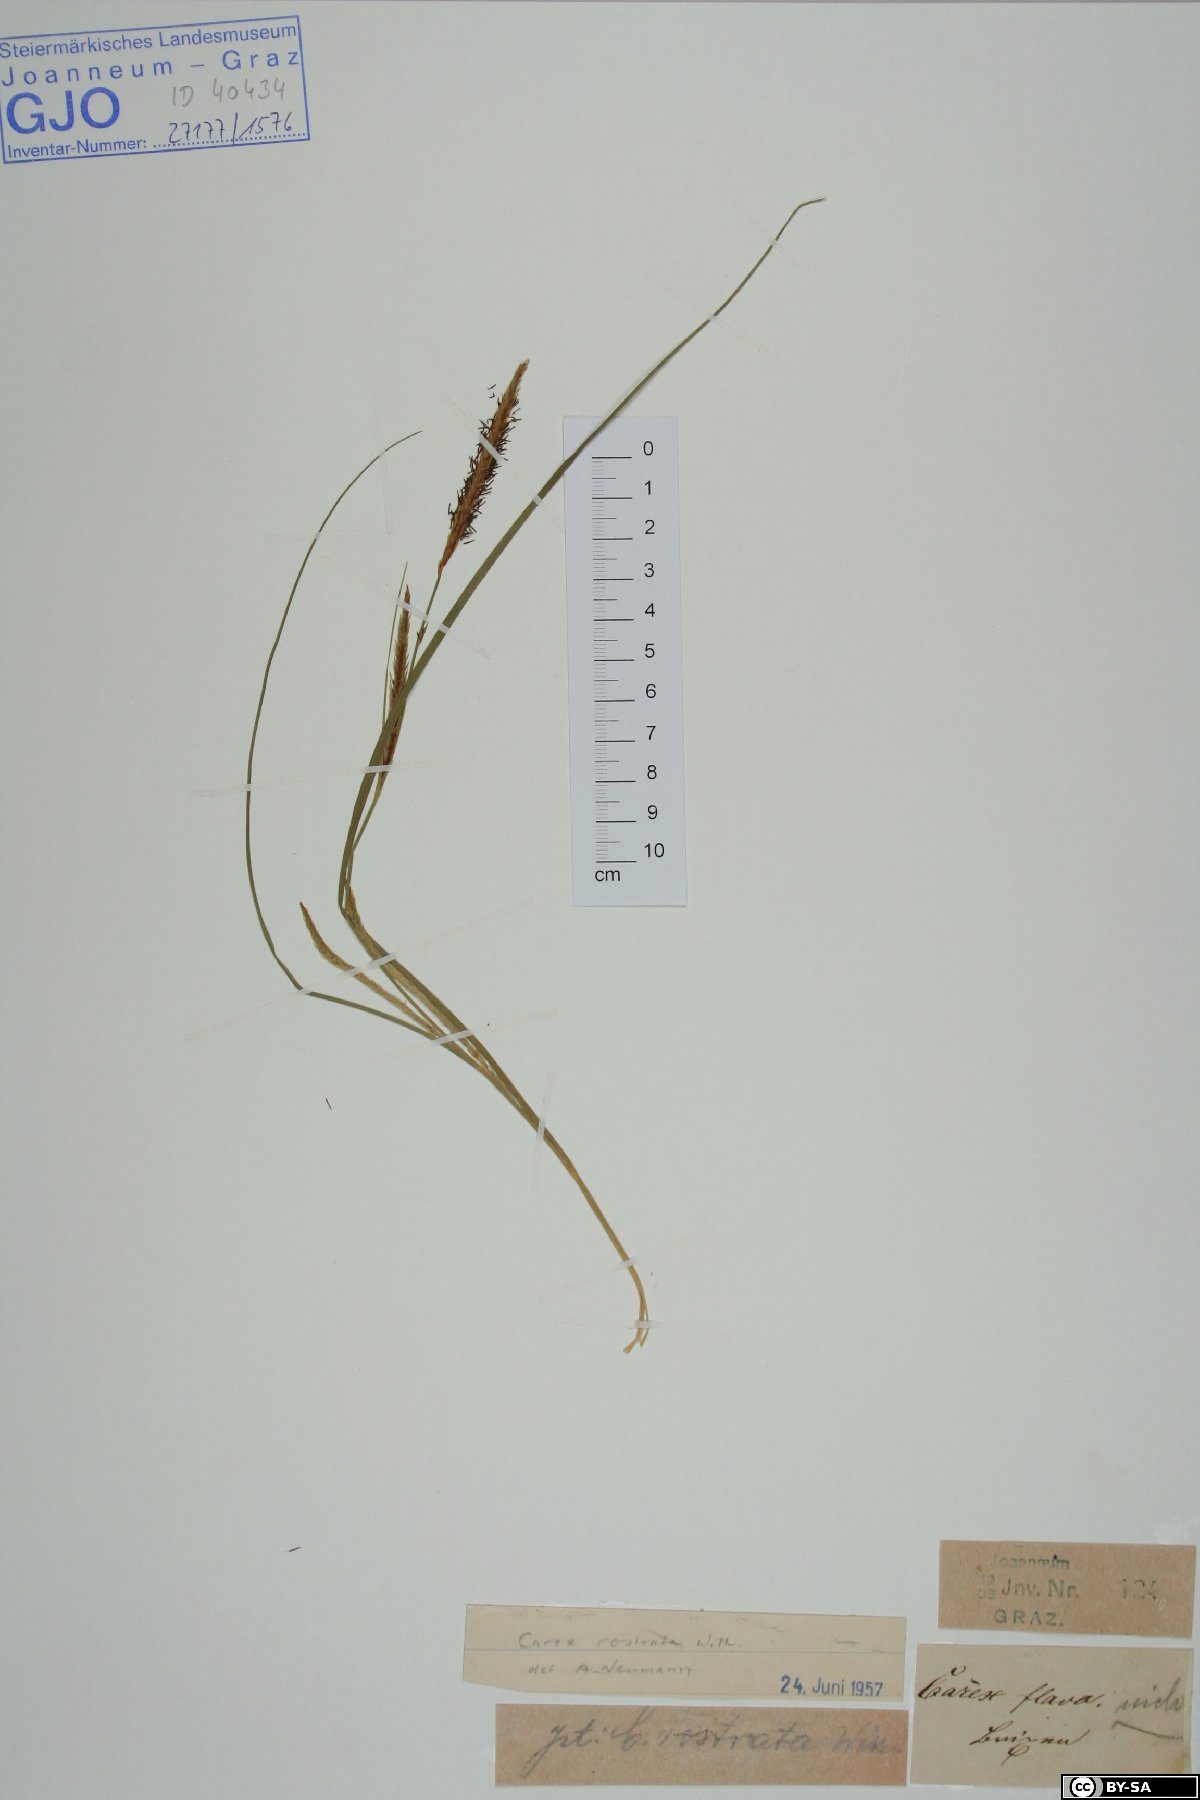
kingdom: Plantae
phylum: Tracheophyta
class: Liliopsida
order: Poales
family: Cyperaceae
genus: Carex
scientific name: Carex rostrata
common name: Bottle sedge
